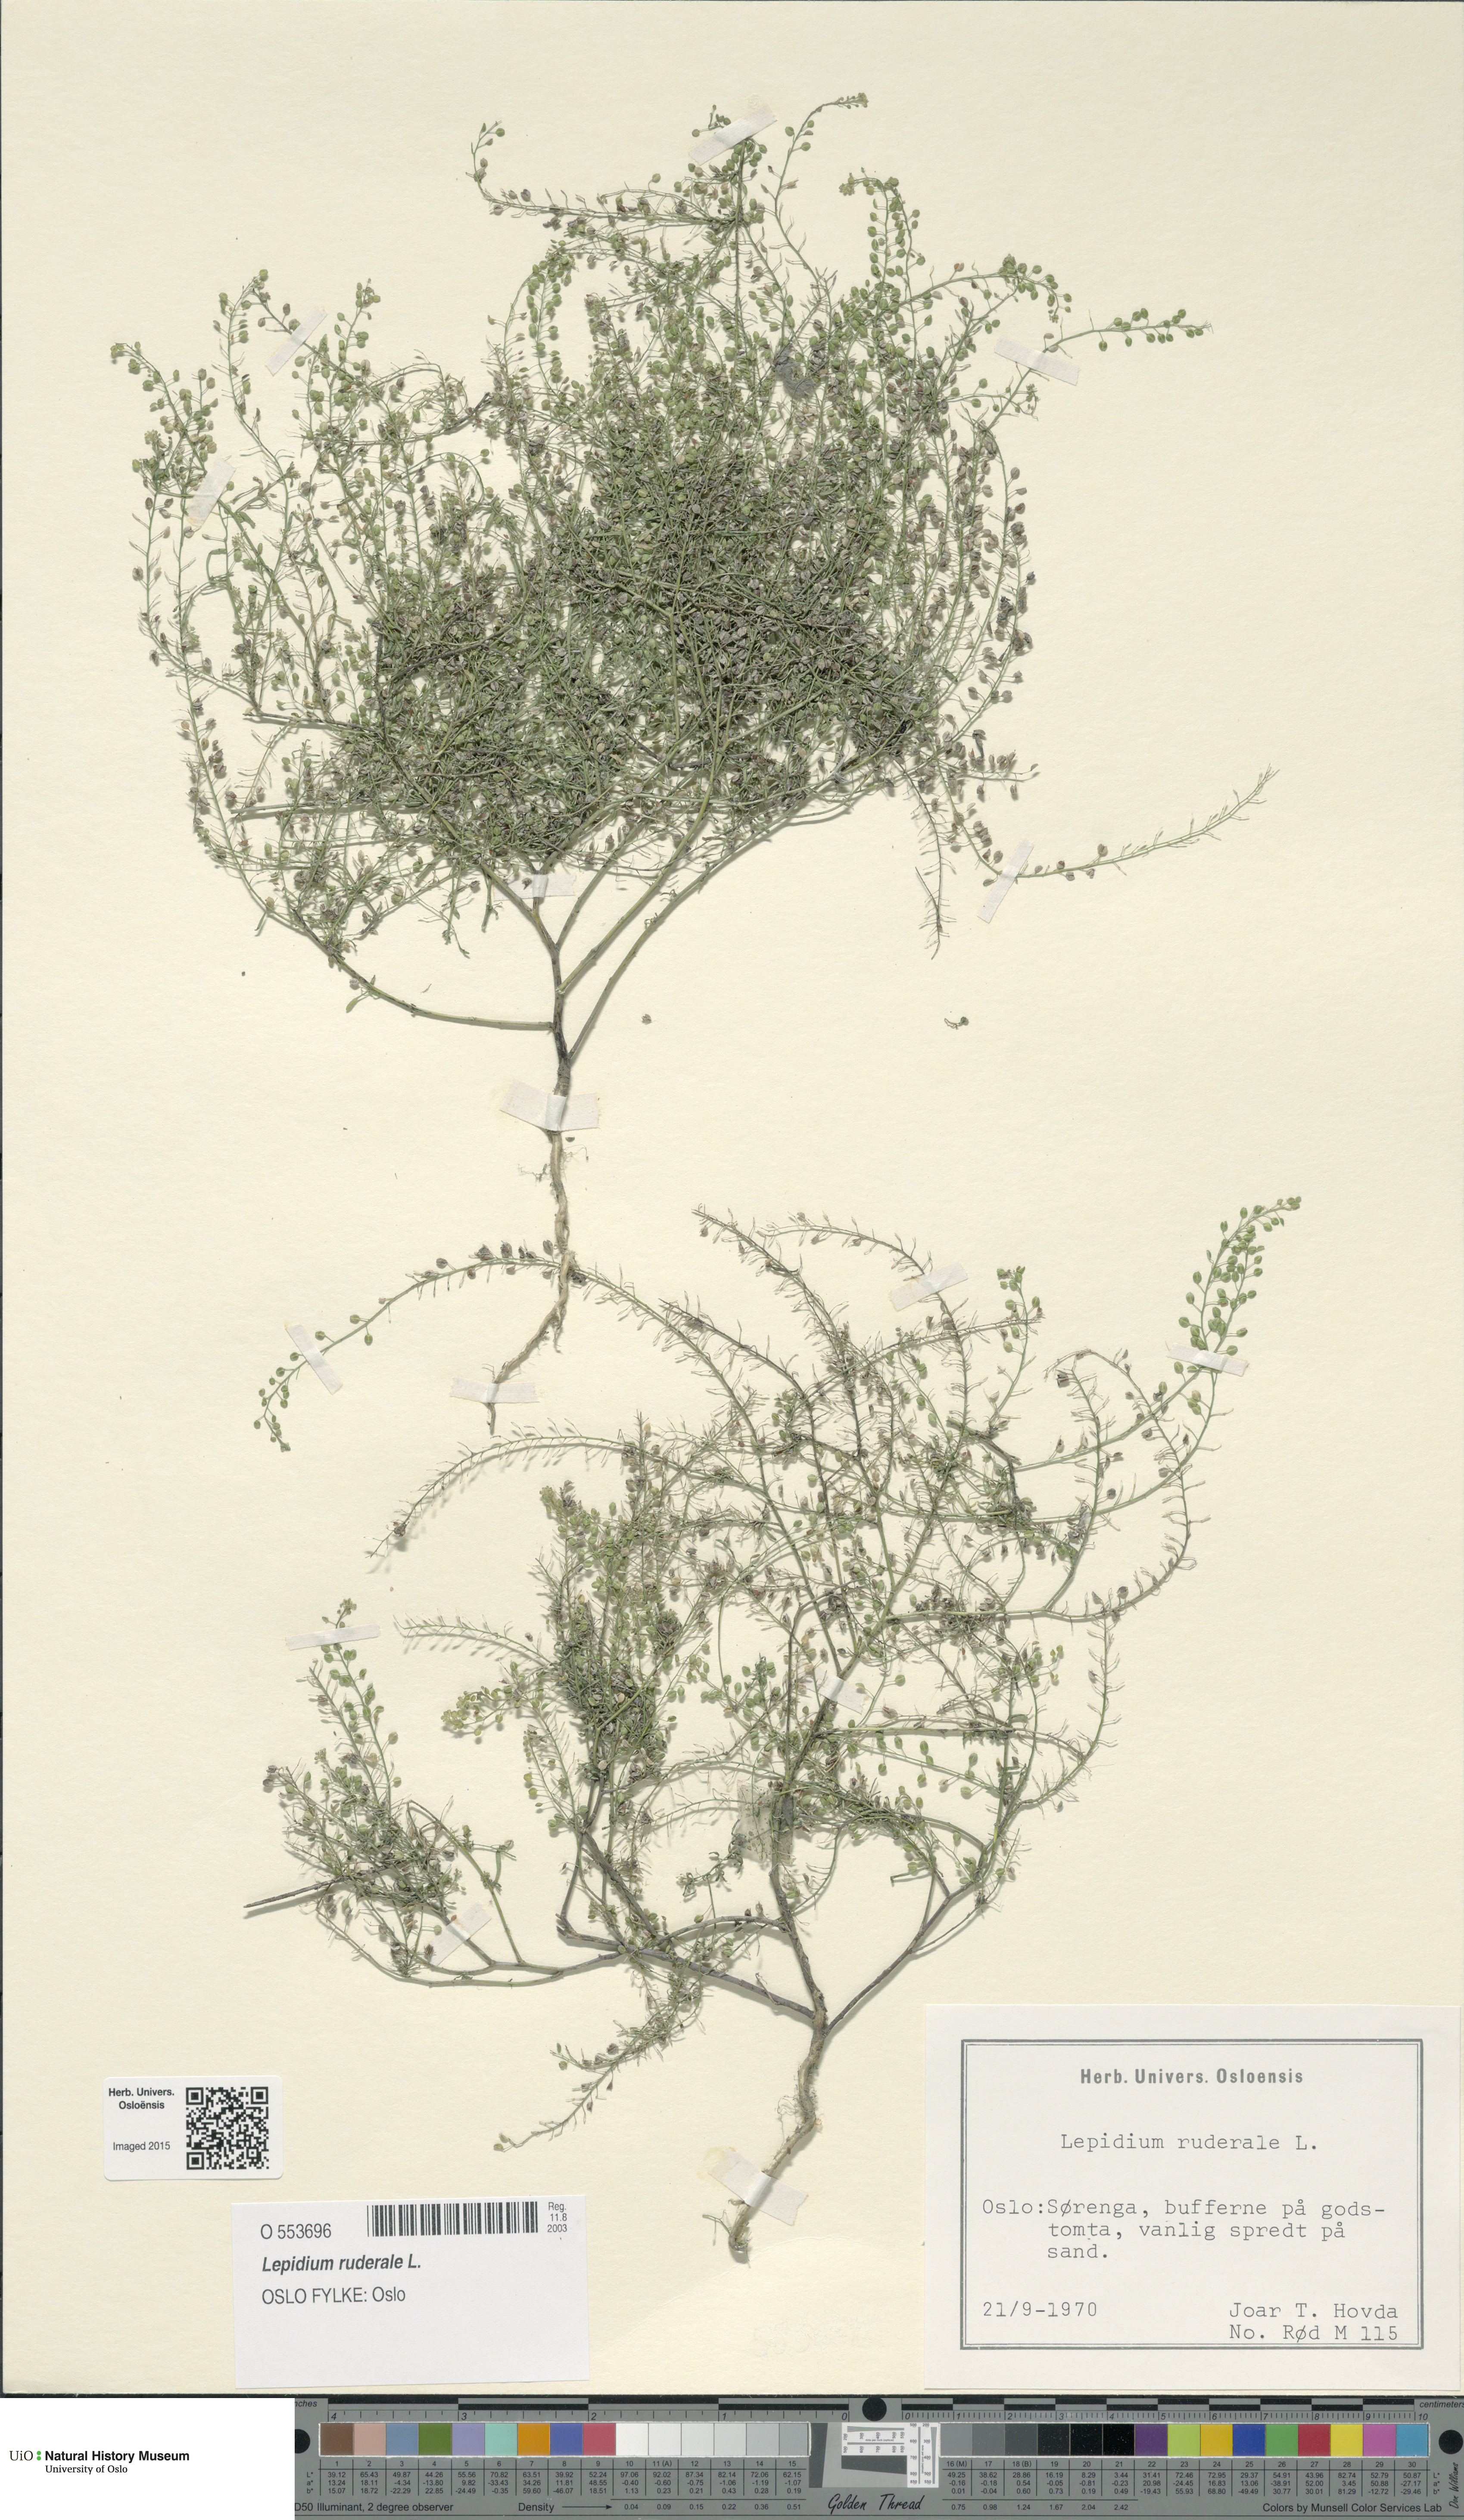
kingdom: Plantae
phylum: Tracheophyta
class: Magnoliopsida
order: Brassicales
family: Brassicaceae
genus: Lepidium
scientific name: Lepidium ruderale
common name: Narrow-leaved pepperwort
